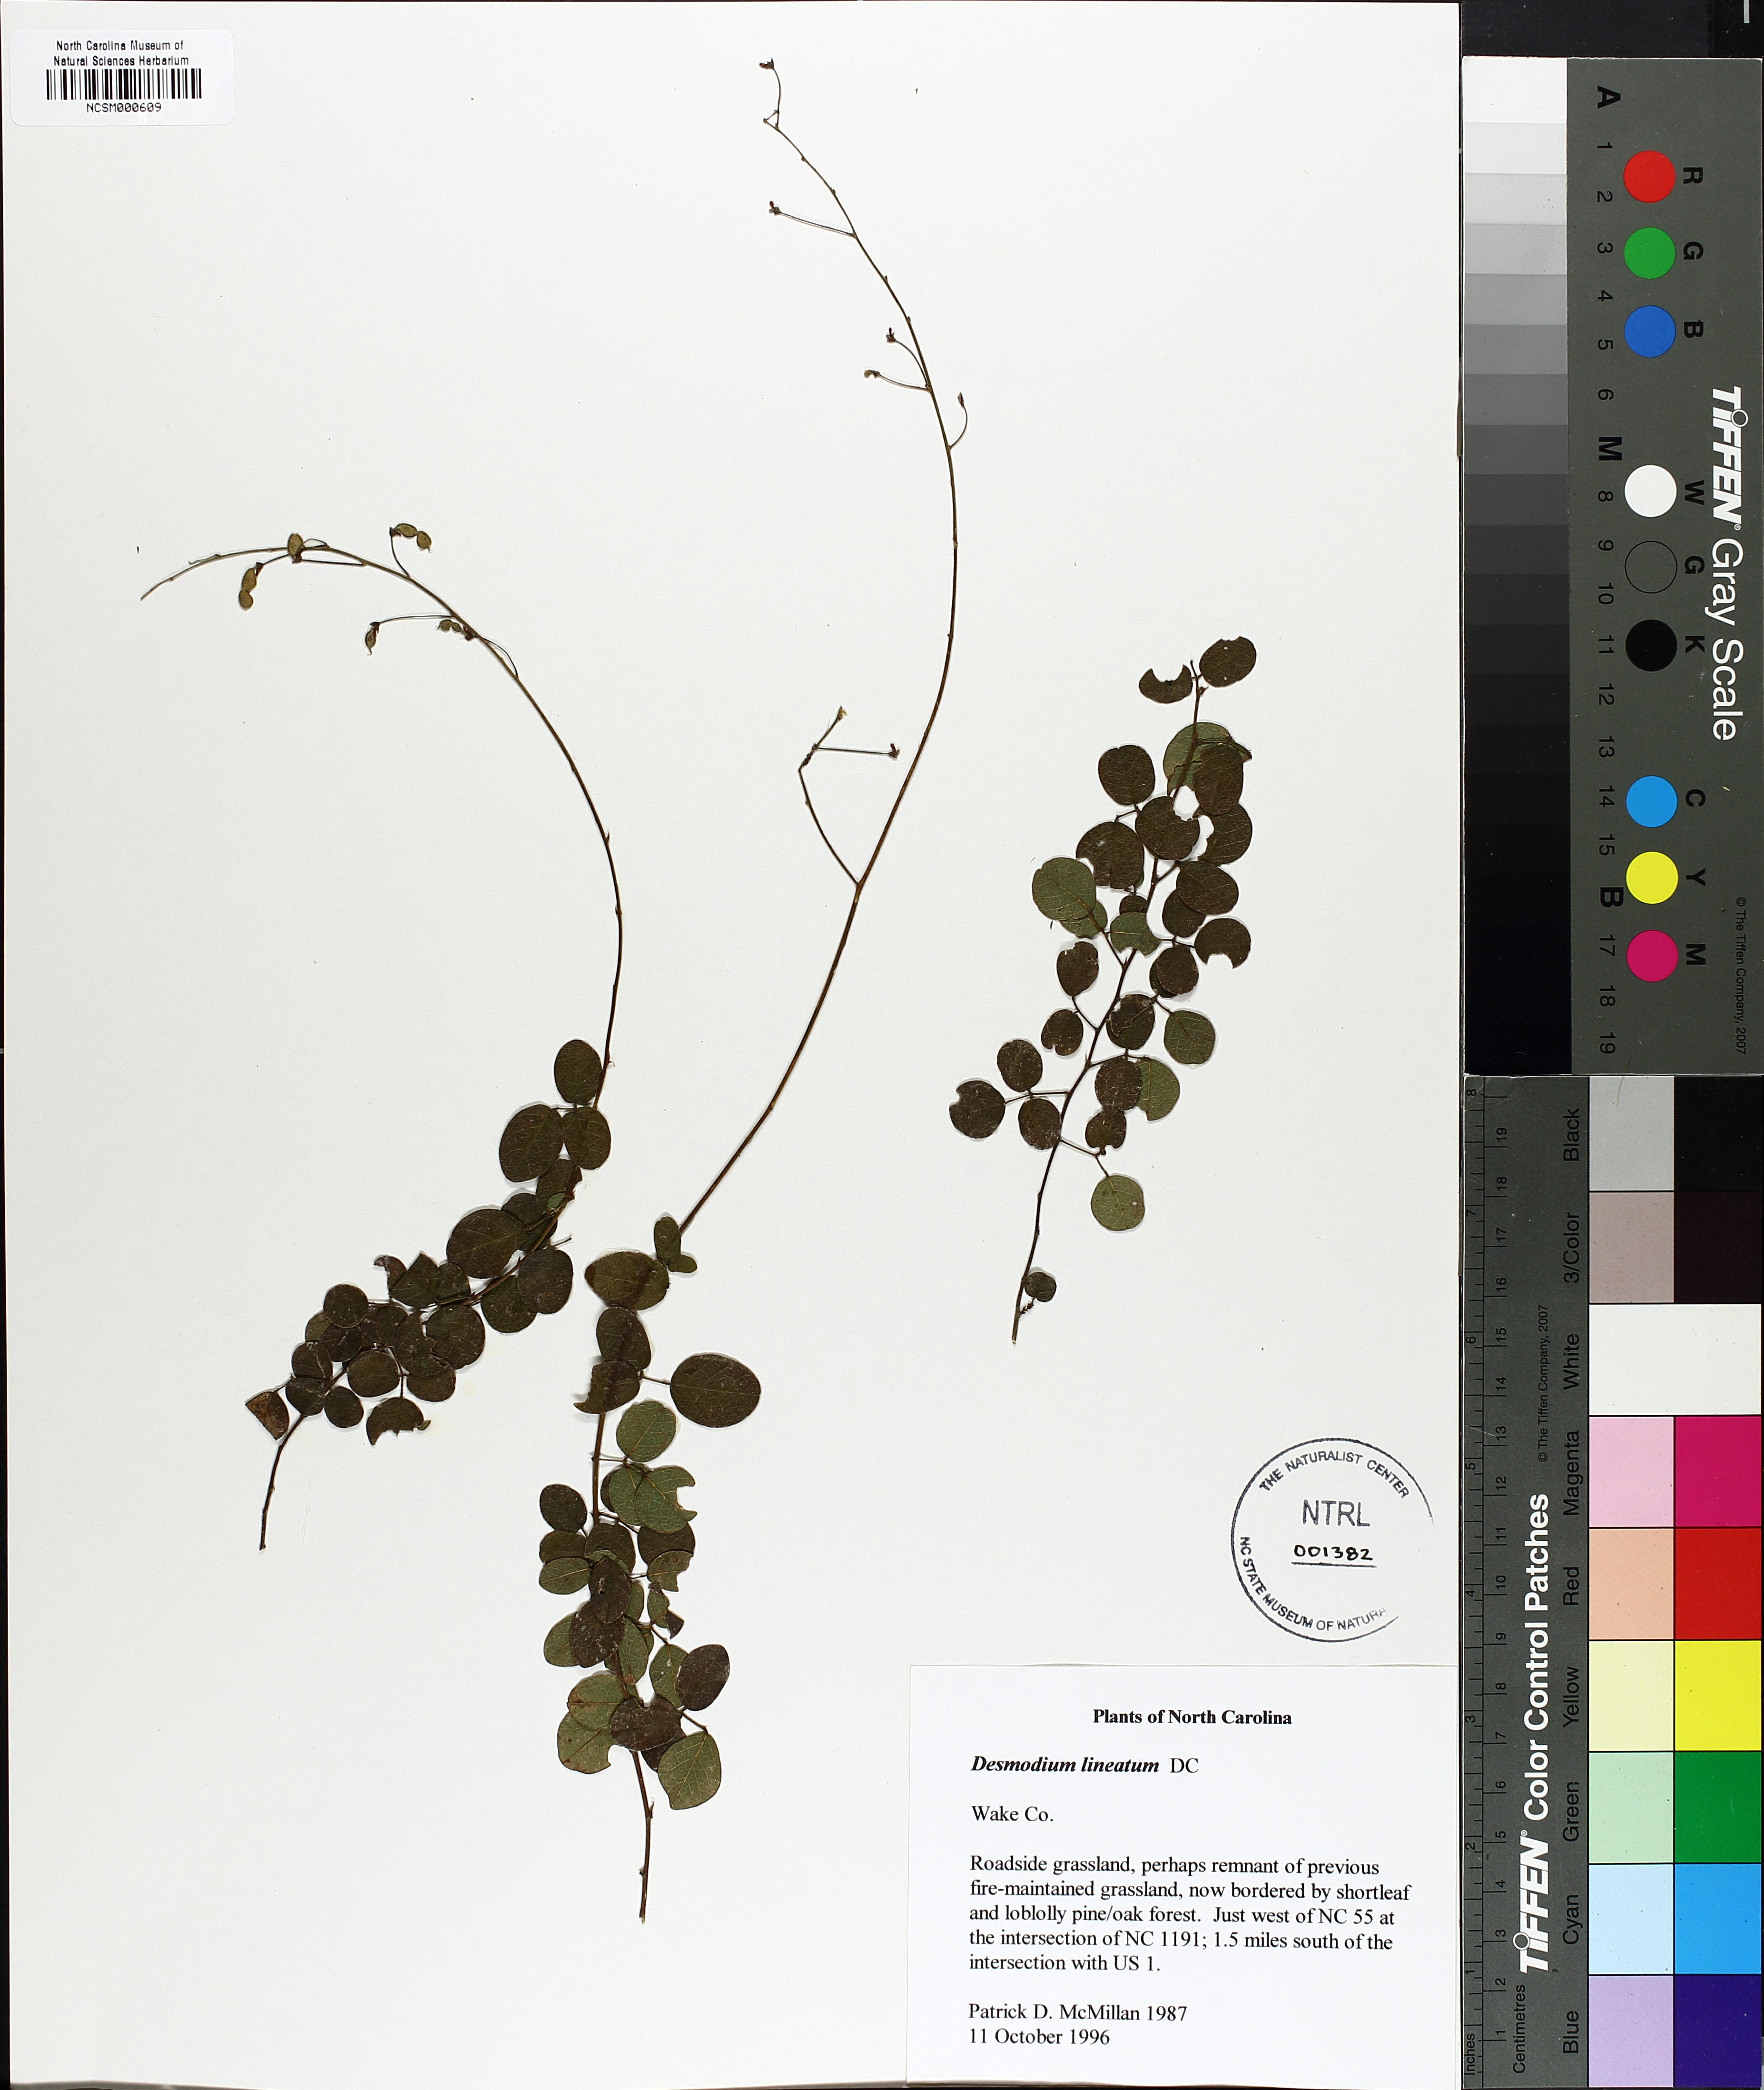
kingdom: Plantae
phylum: Tracheophyta
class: Magnoliopsida
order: Fabales
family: Fabaceae
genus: Desmodium
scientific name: Desmodium lineatum
